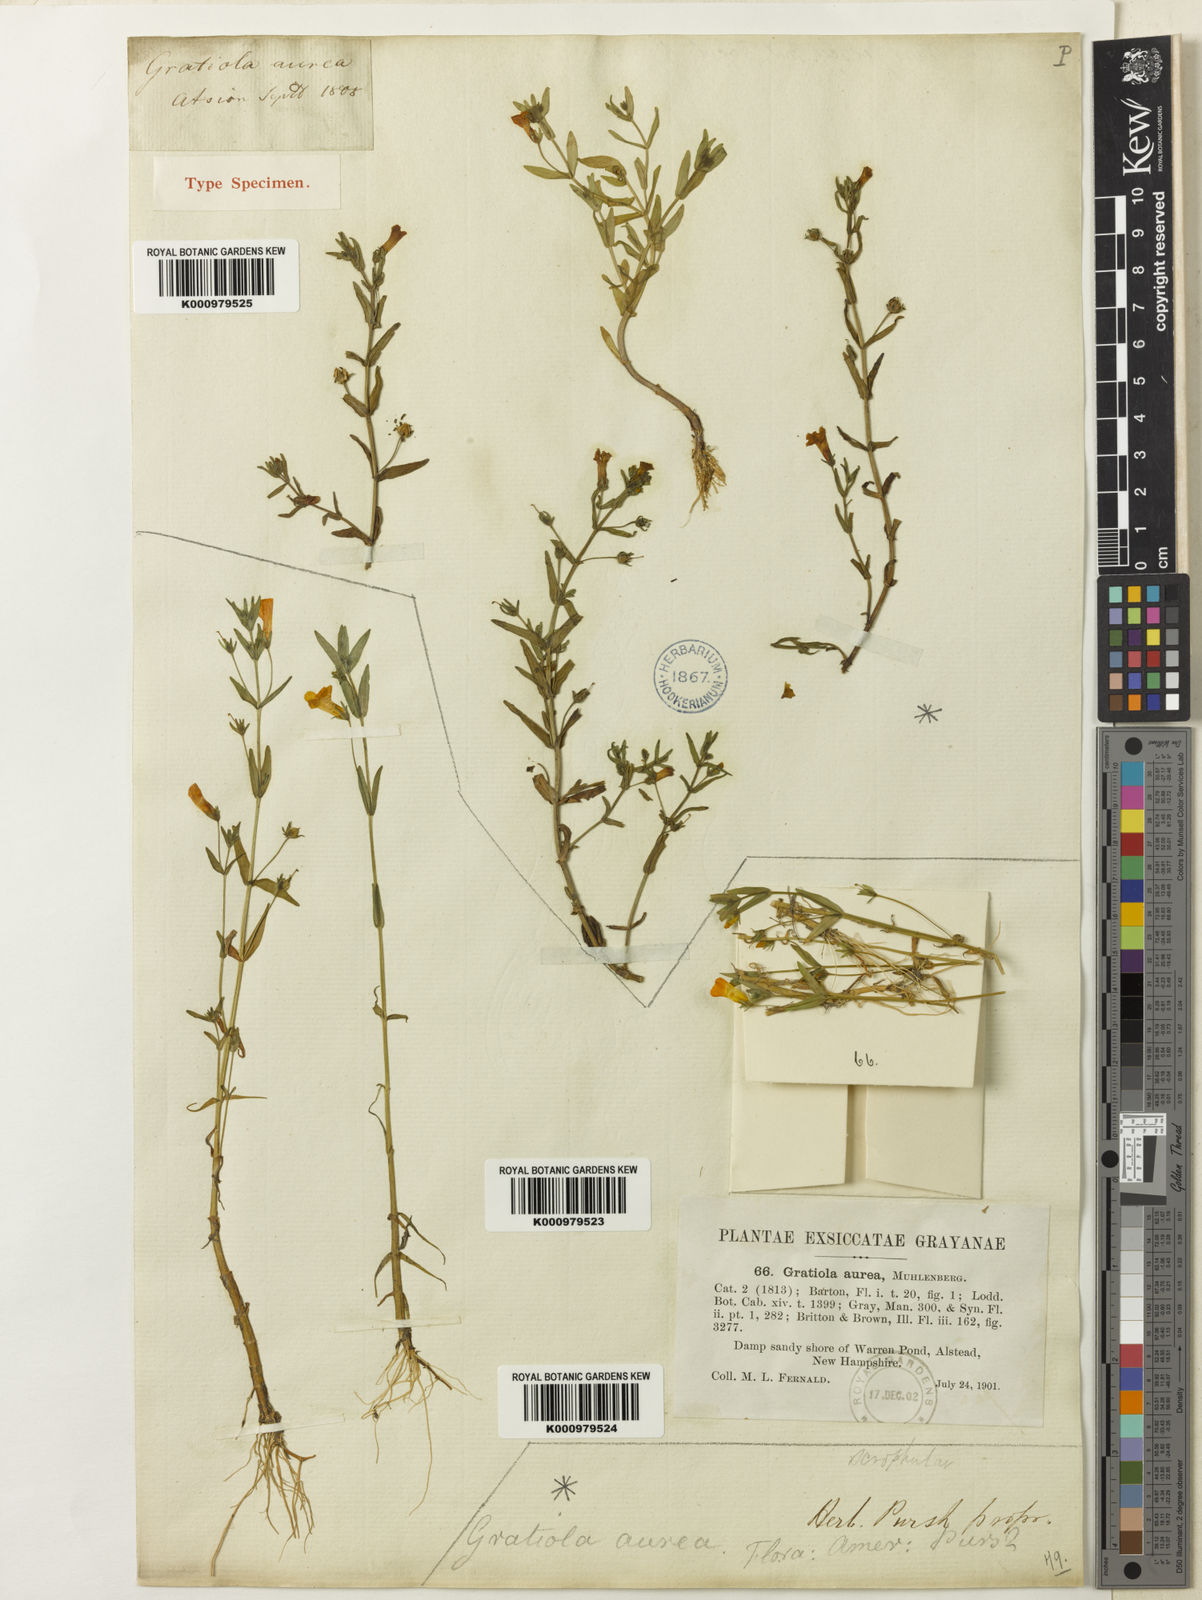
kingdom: Plantae
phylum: Tracheophyta
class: Magnoliopsida
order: Lamiales
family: Plantaginaceae
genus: Gratiola
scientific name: Gratiola
